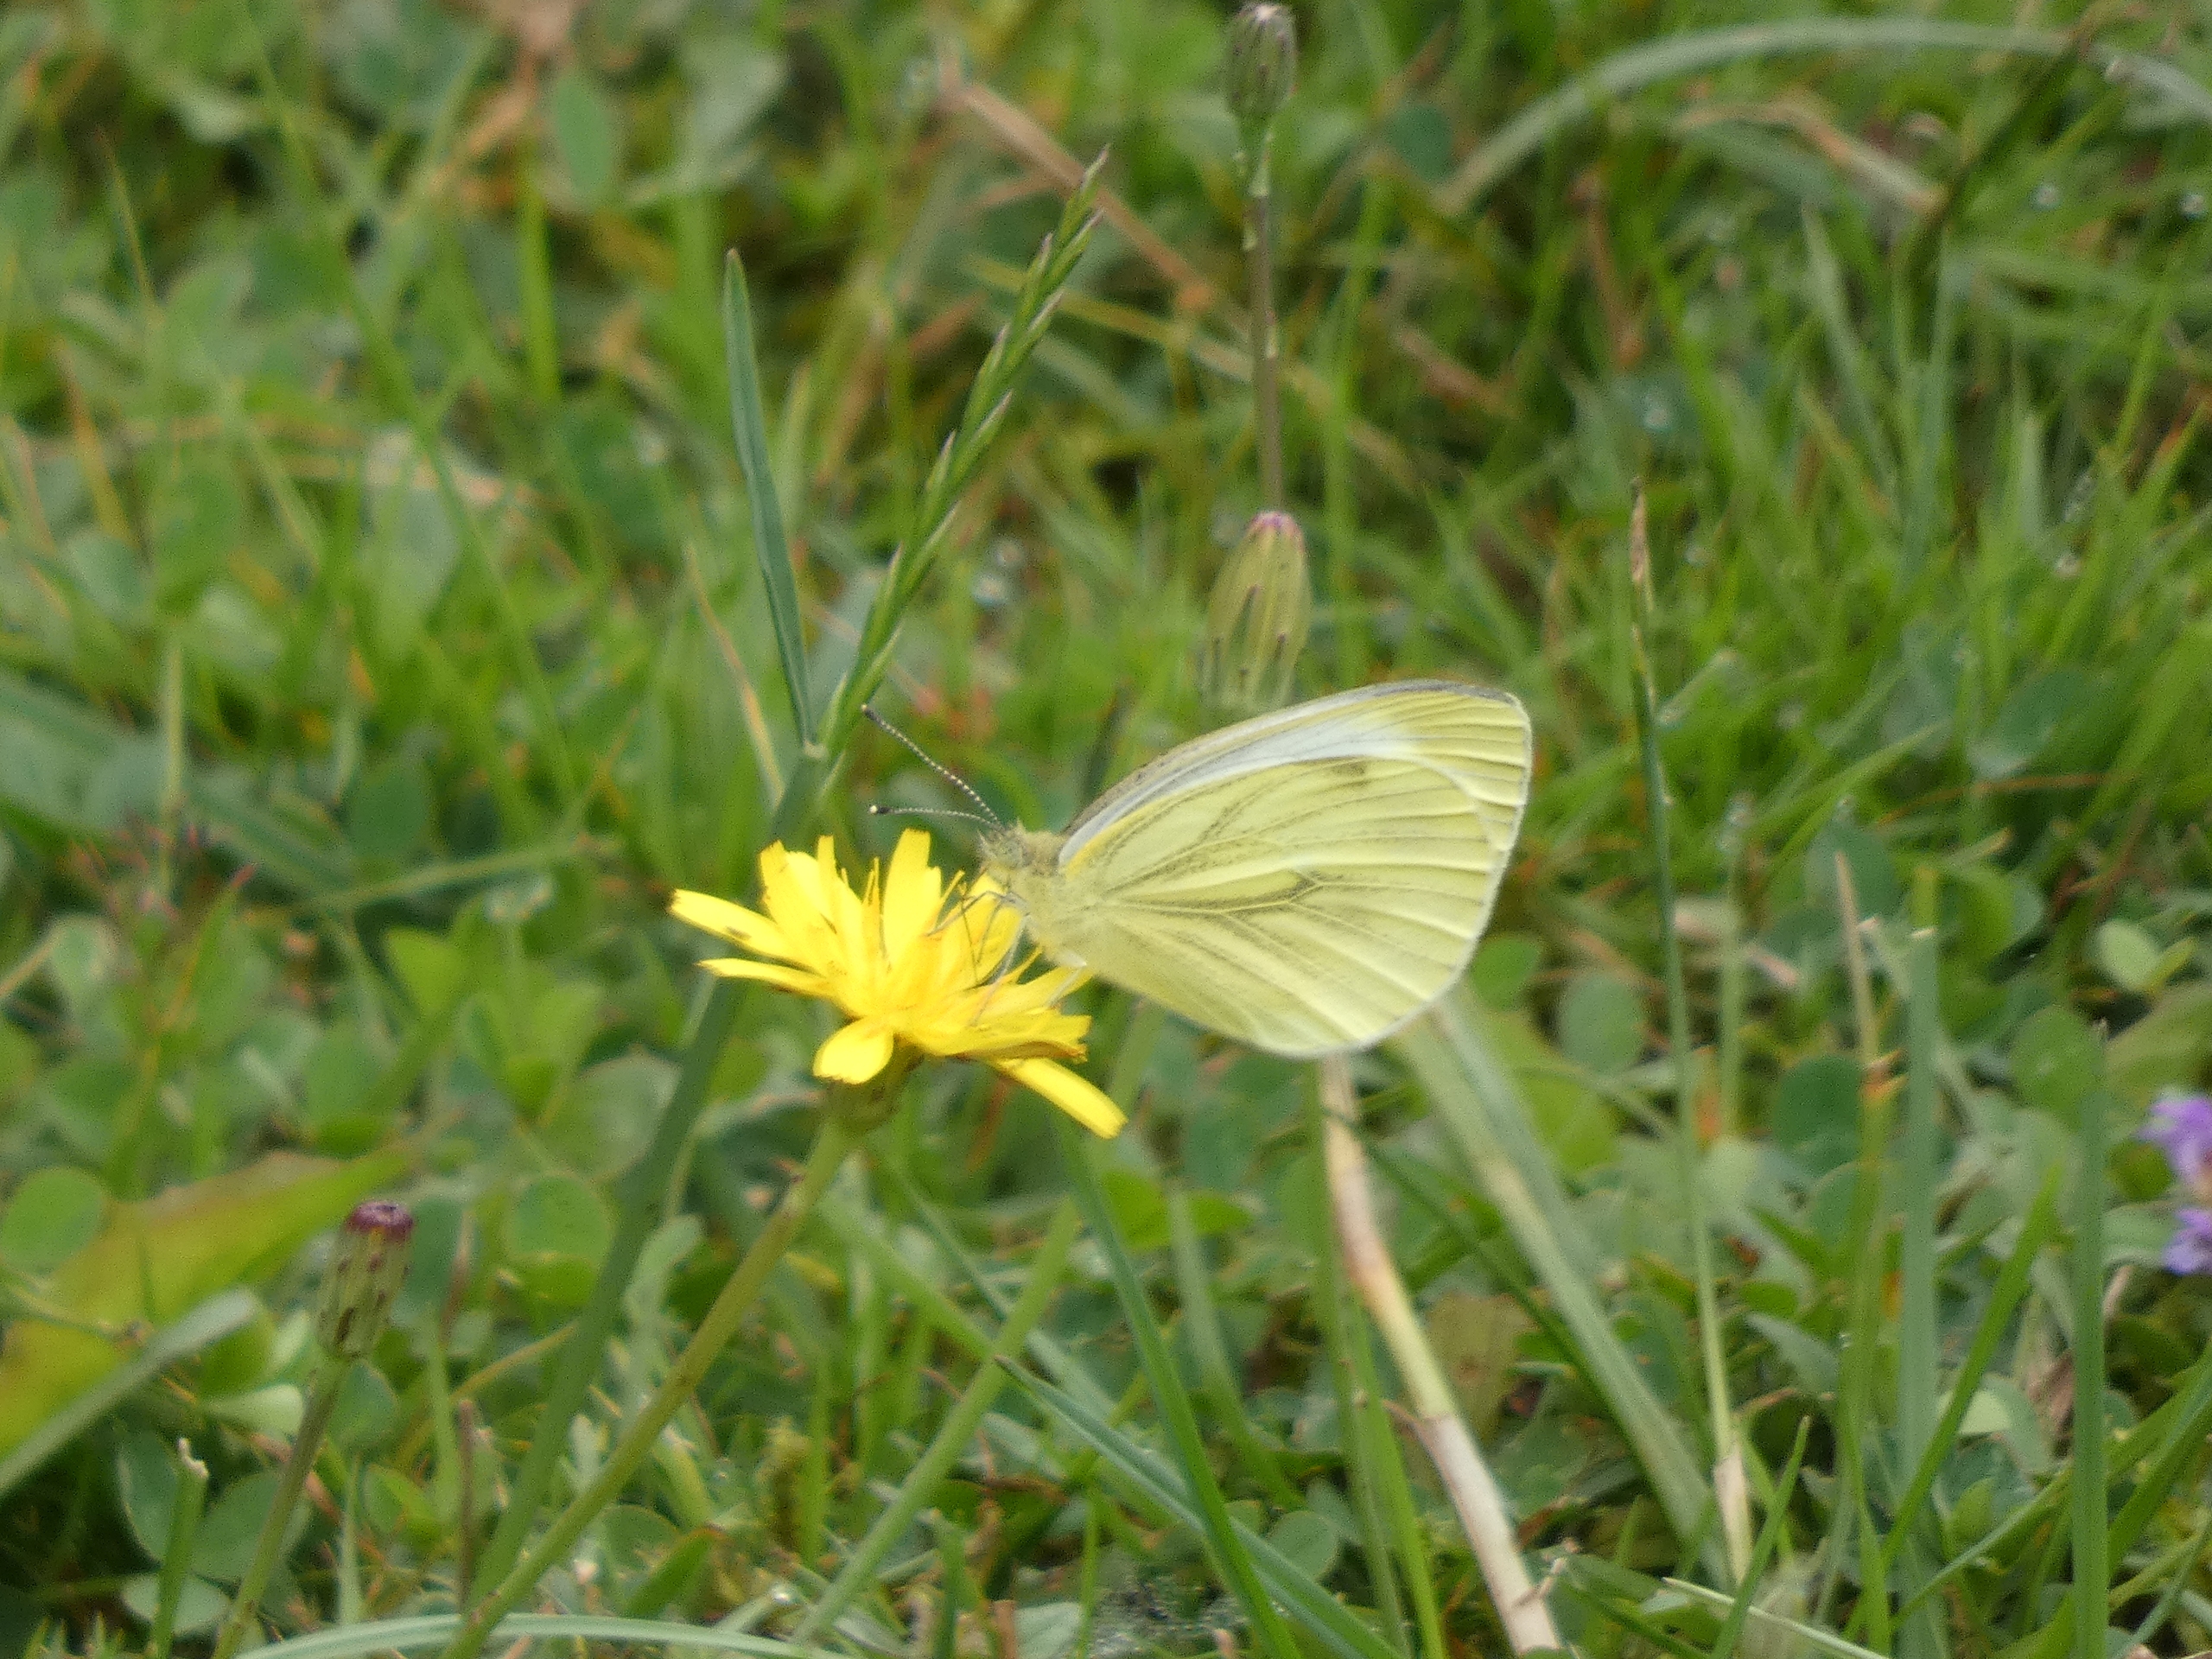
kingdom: Animalia
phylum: Arthropoda
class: Insecta
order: Lepidoptera
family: Pieridae
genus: Pieris
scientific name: Pieris napi
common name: Grønåret kålsommerfugl
